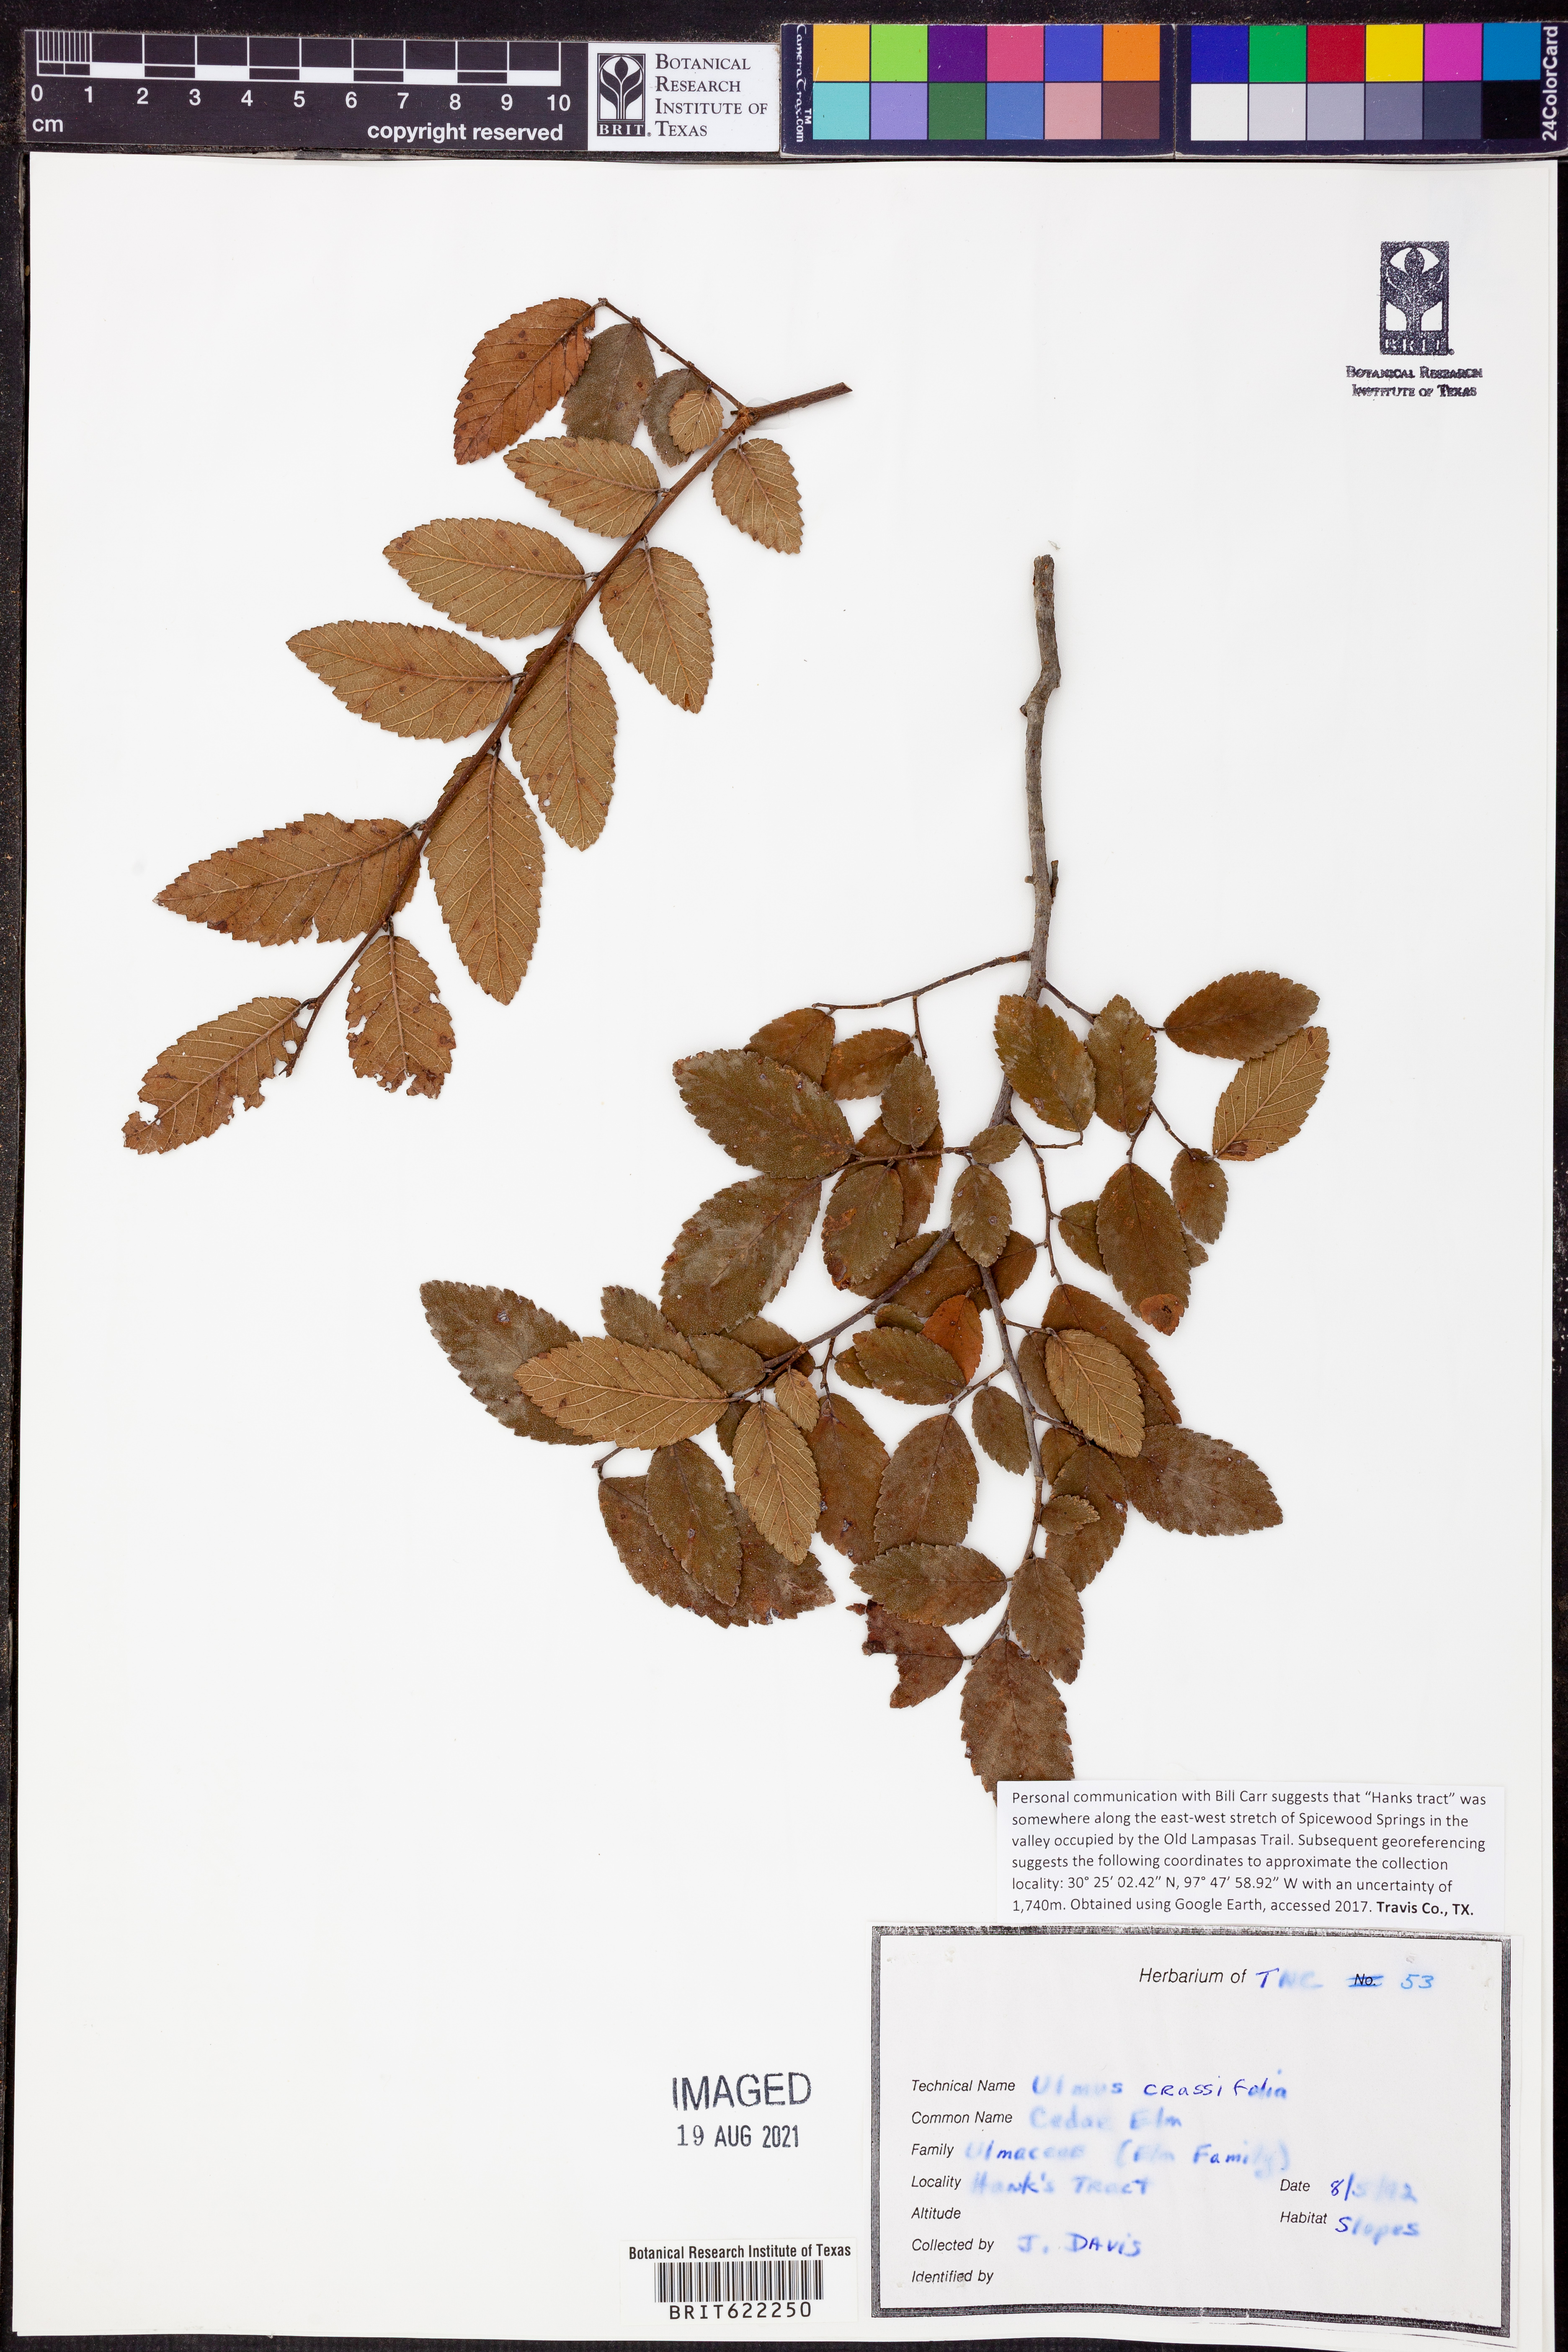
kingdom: Plantae
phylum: Tracheophyta
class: Magnoliopsida
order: Rosales
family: Ulmaceae
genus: Ulmus
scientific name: Ulmus crassifolia
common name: Basket elm
